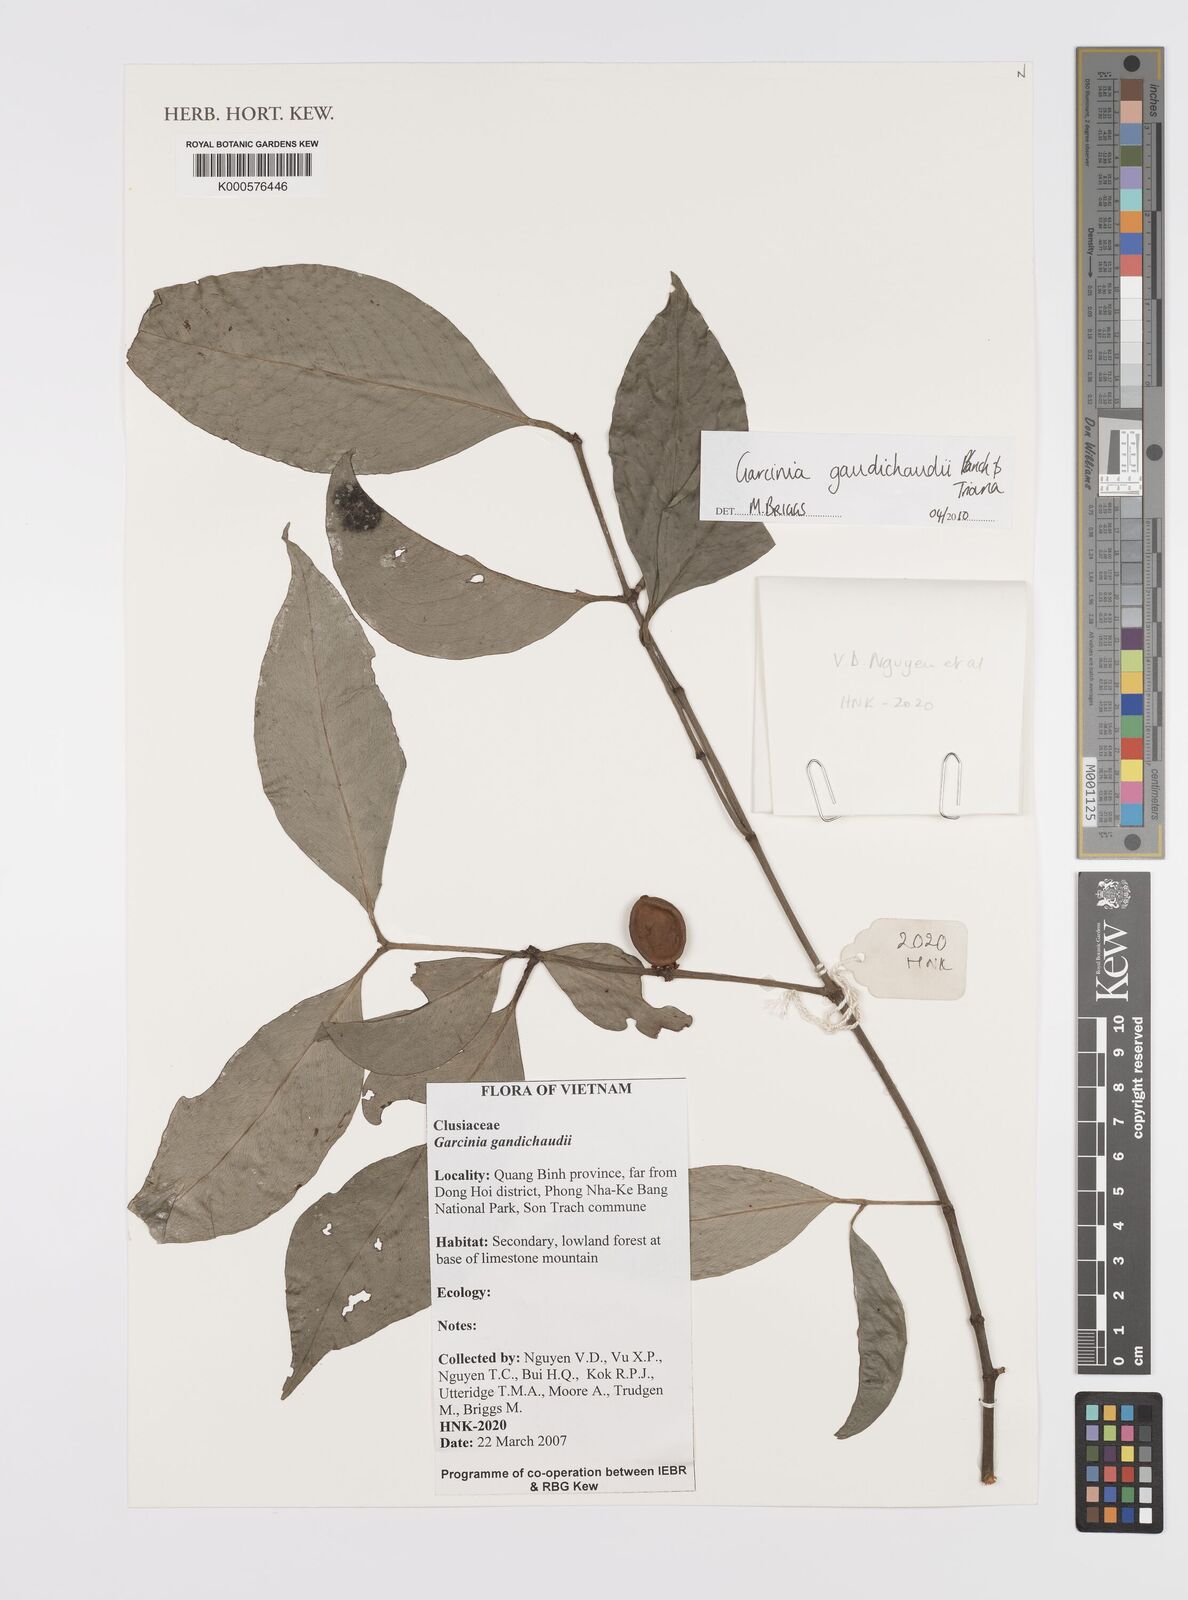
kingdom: Plantae
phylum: Tracheophyta
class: Magnoliopsida
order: Malpighiales
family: Clusiaceae
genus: Garcinia
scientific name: Garcinia gaudichaudii
